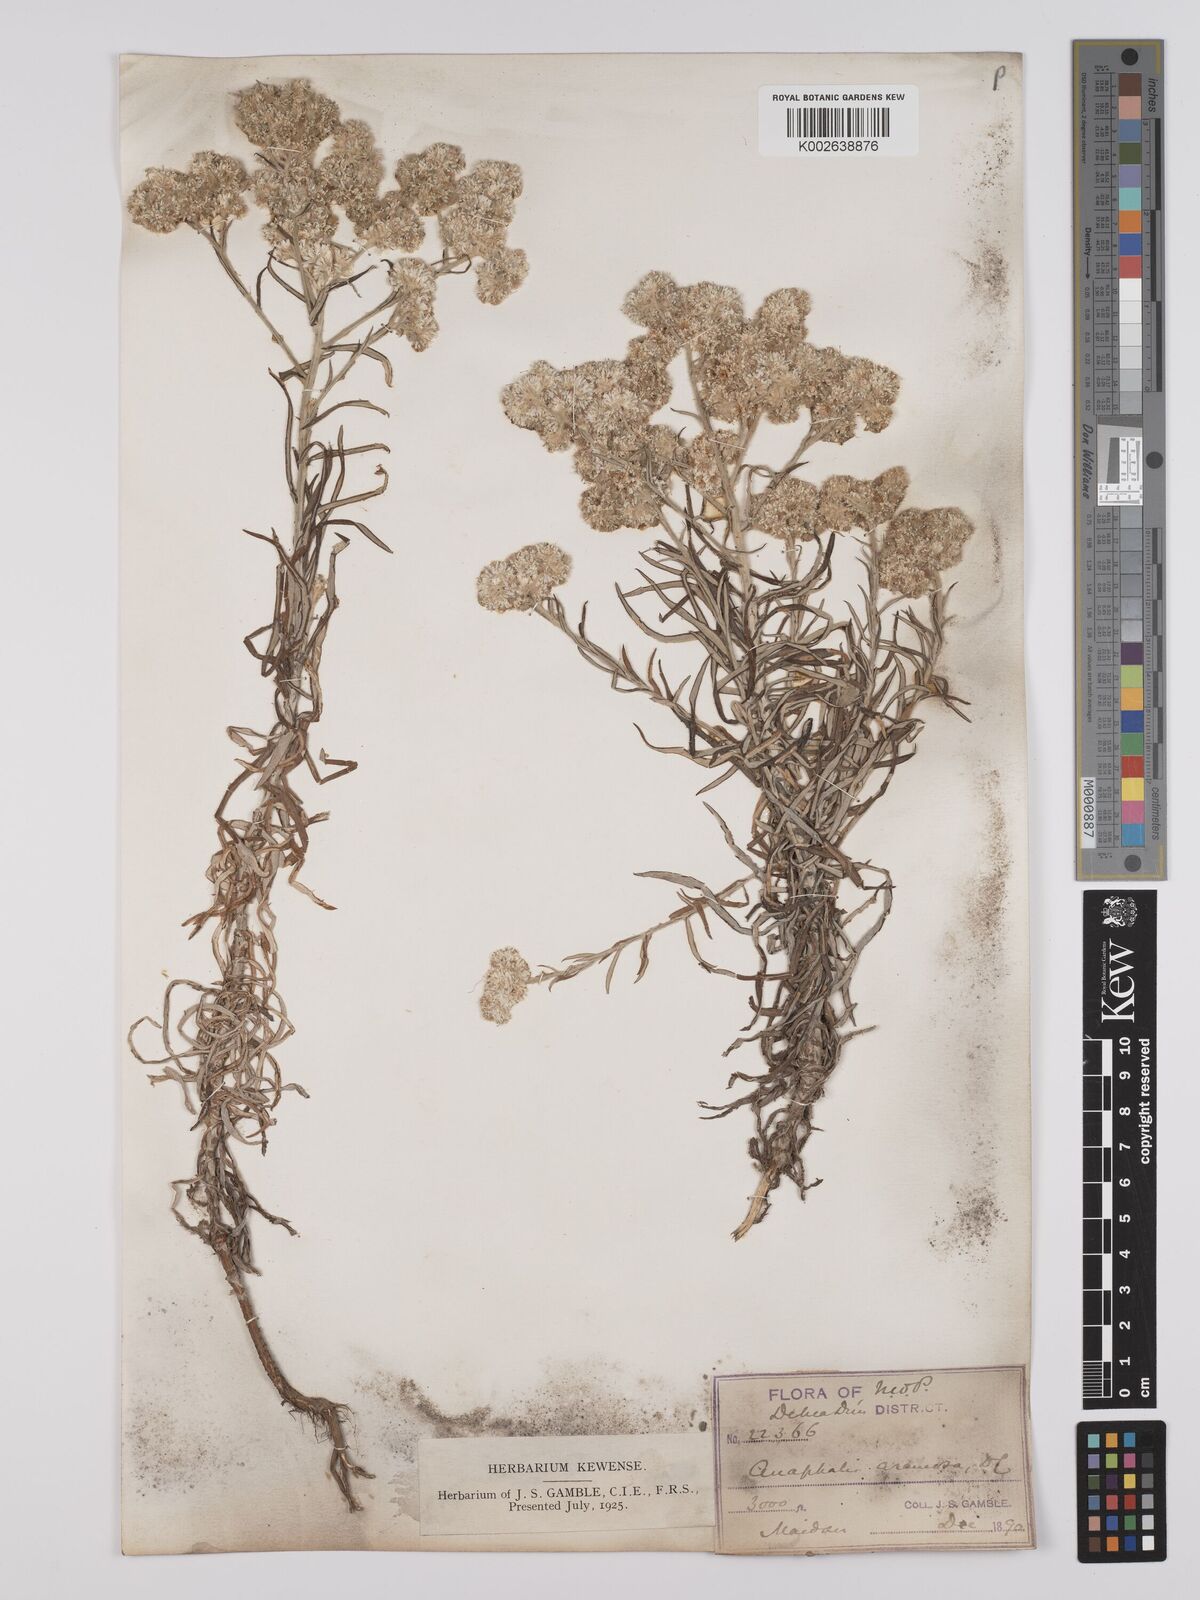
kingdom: Plantae
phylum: Tracheophyta
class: Magnoliopsida
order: Asterales
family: Asteraceae
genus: Anaphalis
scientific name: Anaphalis busua
